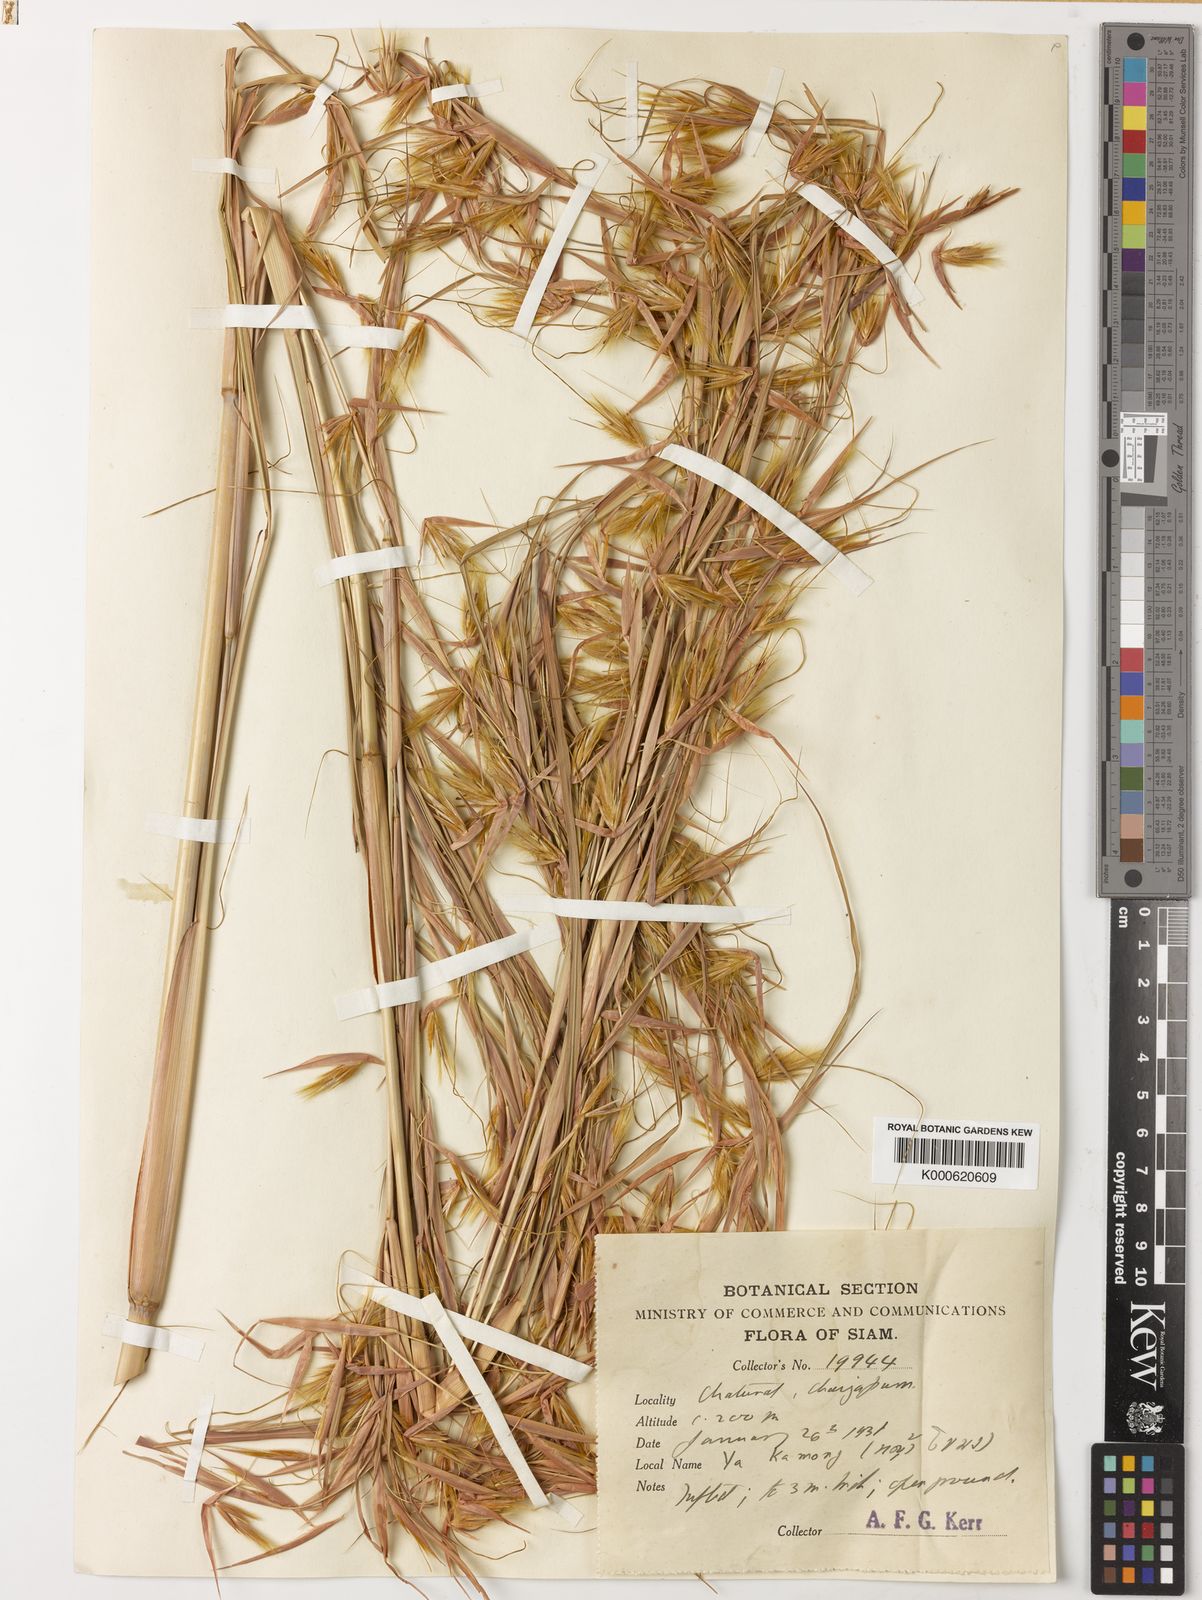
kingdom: Plantae
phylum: Tracheophyta
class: Liliopsida
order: Poales
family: Poaceae
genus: Themeda
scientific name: Themeda arundinacea
